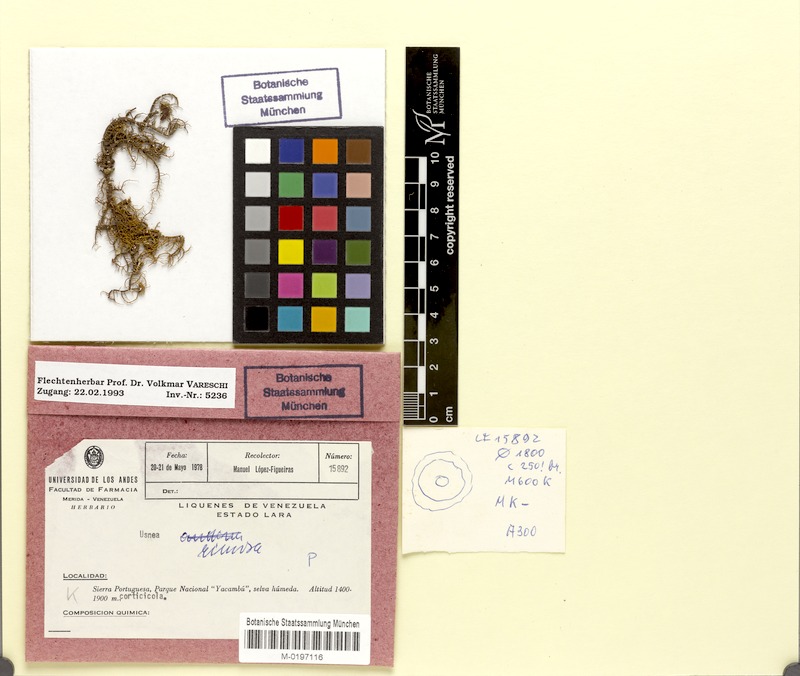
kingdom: Fungi
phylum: Ascomycota
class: Lecanoromycetes
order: Lecanorales
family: Parmeliaceae
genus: Usnea
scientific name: Usnea
